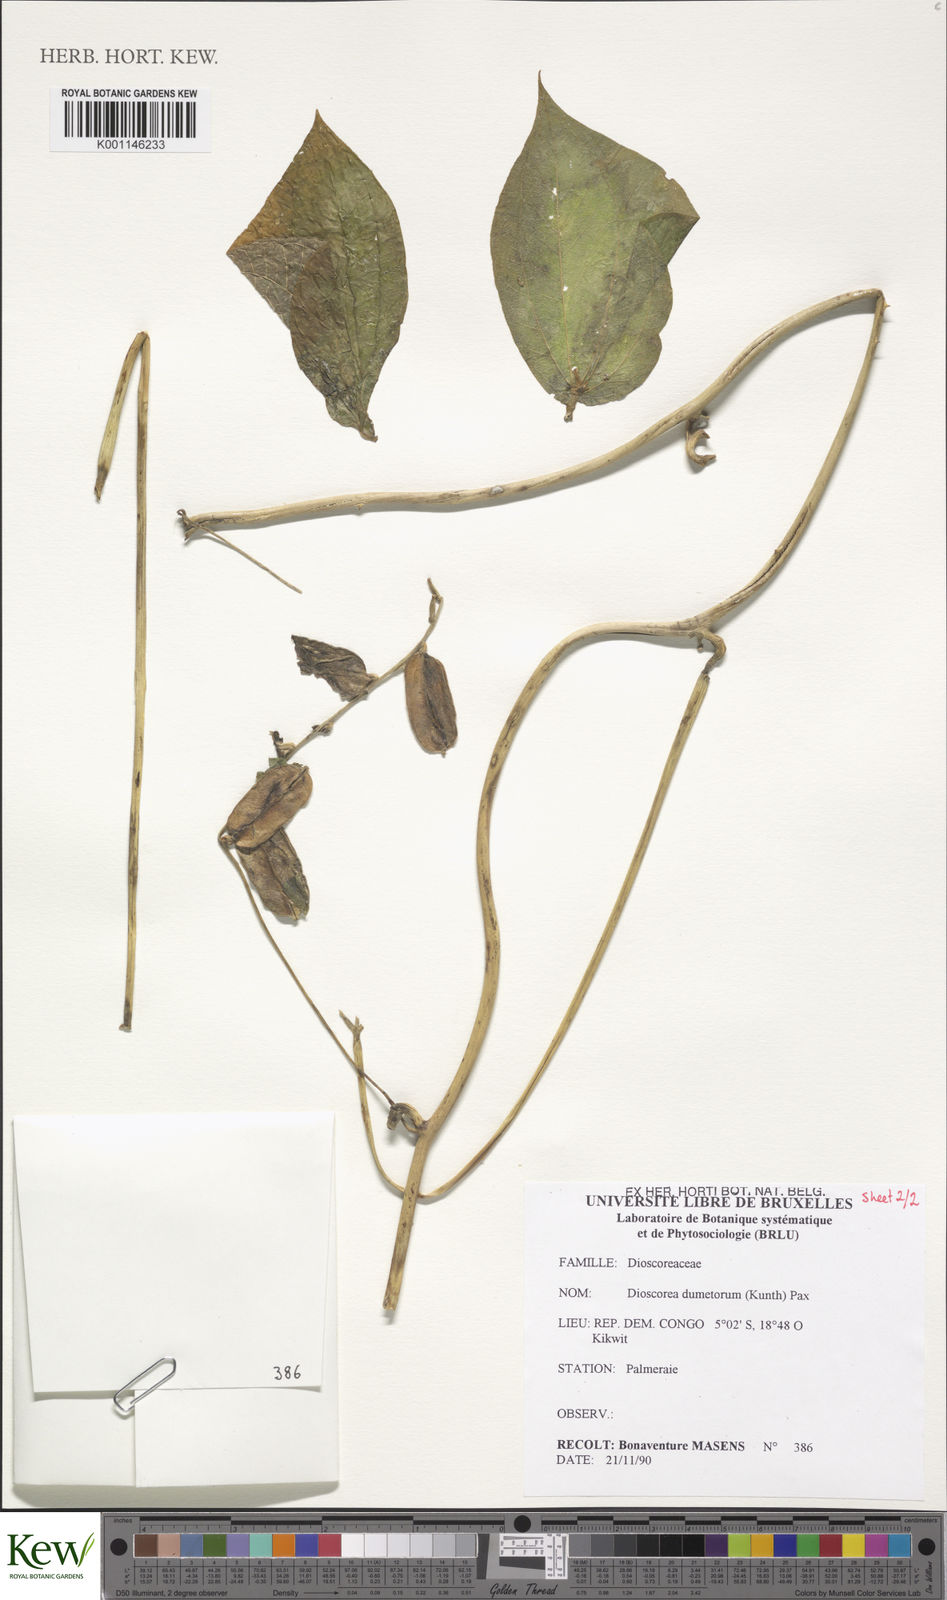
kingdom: Plantae
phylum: Tracheophyta
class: Liliopsida
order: Dioscoreales
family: Dioscoreaceae
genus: Dioscorea
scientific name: Dioscorea dumetorum
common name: African bitter yam
